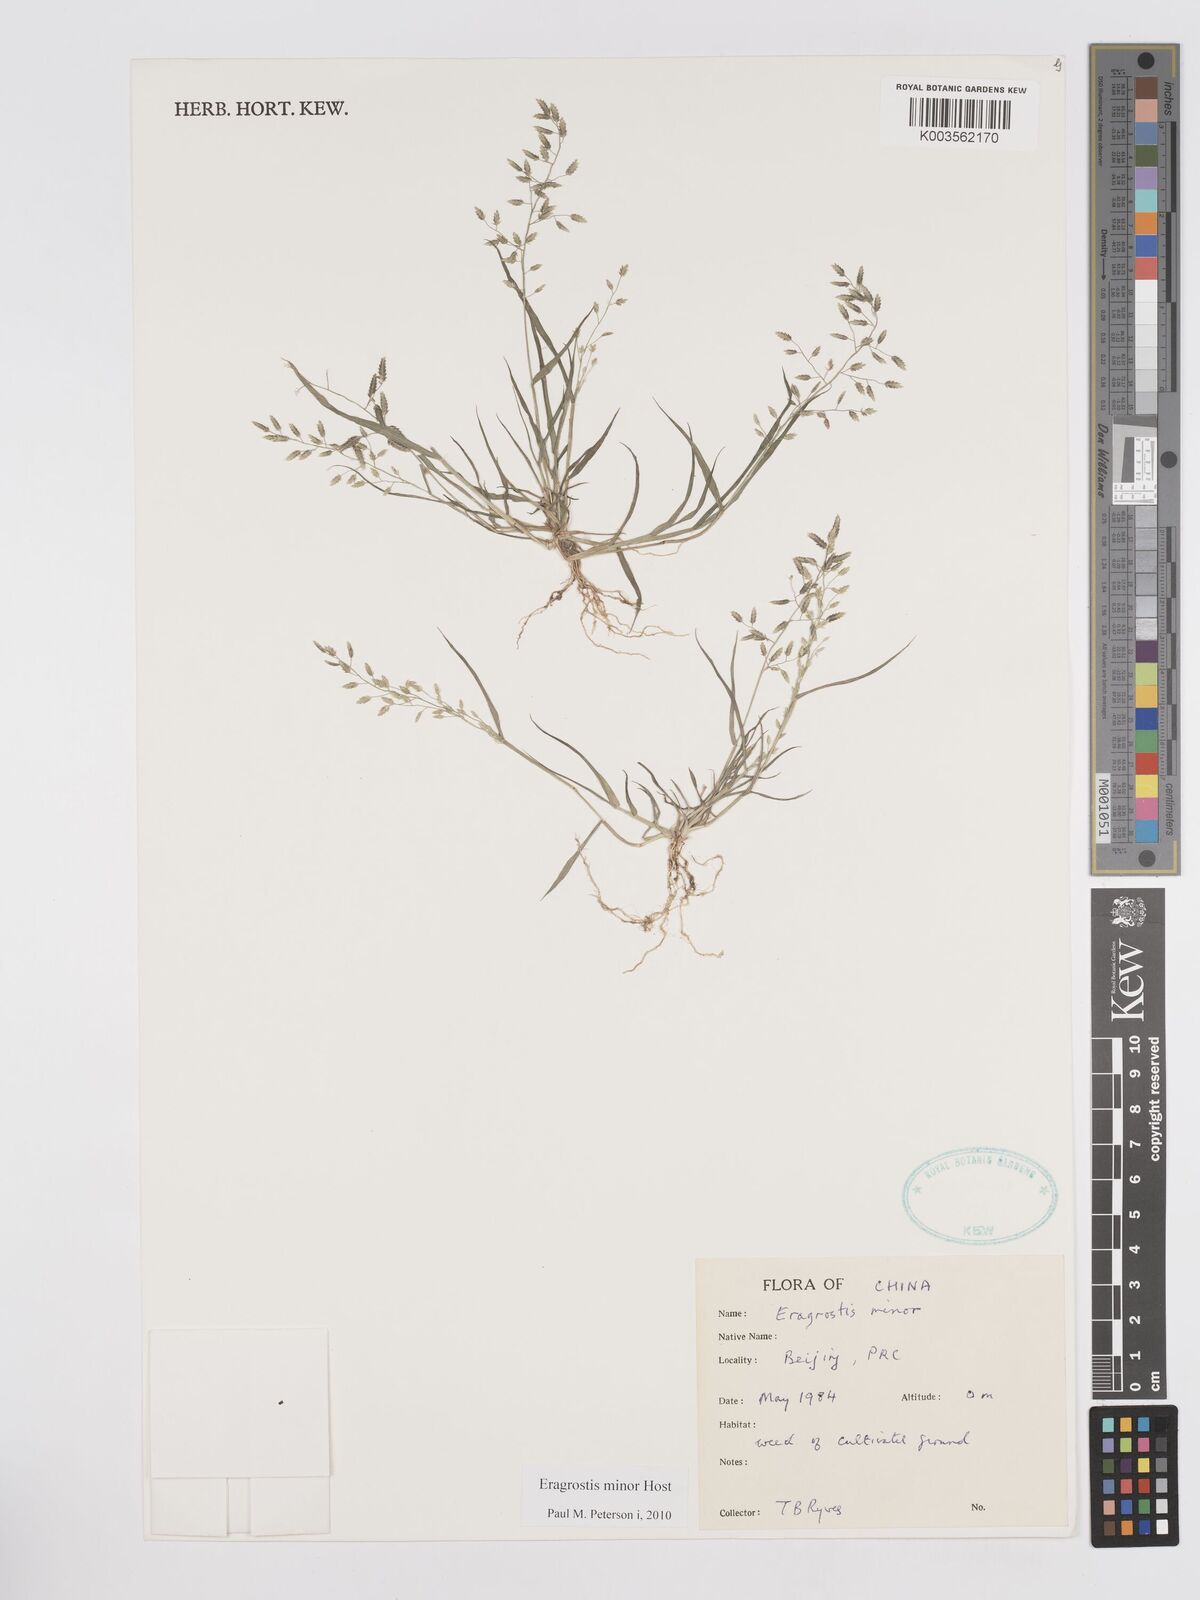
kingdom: Plantae
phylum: Tracheophyta
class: Liliopsida
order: Poales
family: Poaceae
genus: Eragrostis
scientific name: Eragrostis minor
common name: Small love-grass
